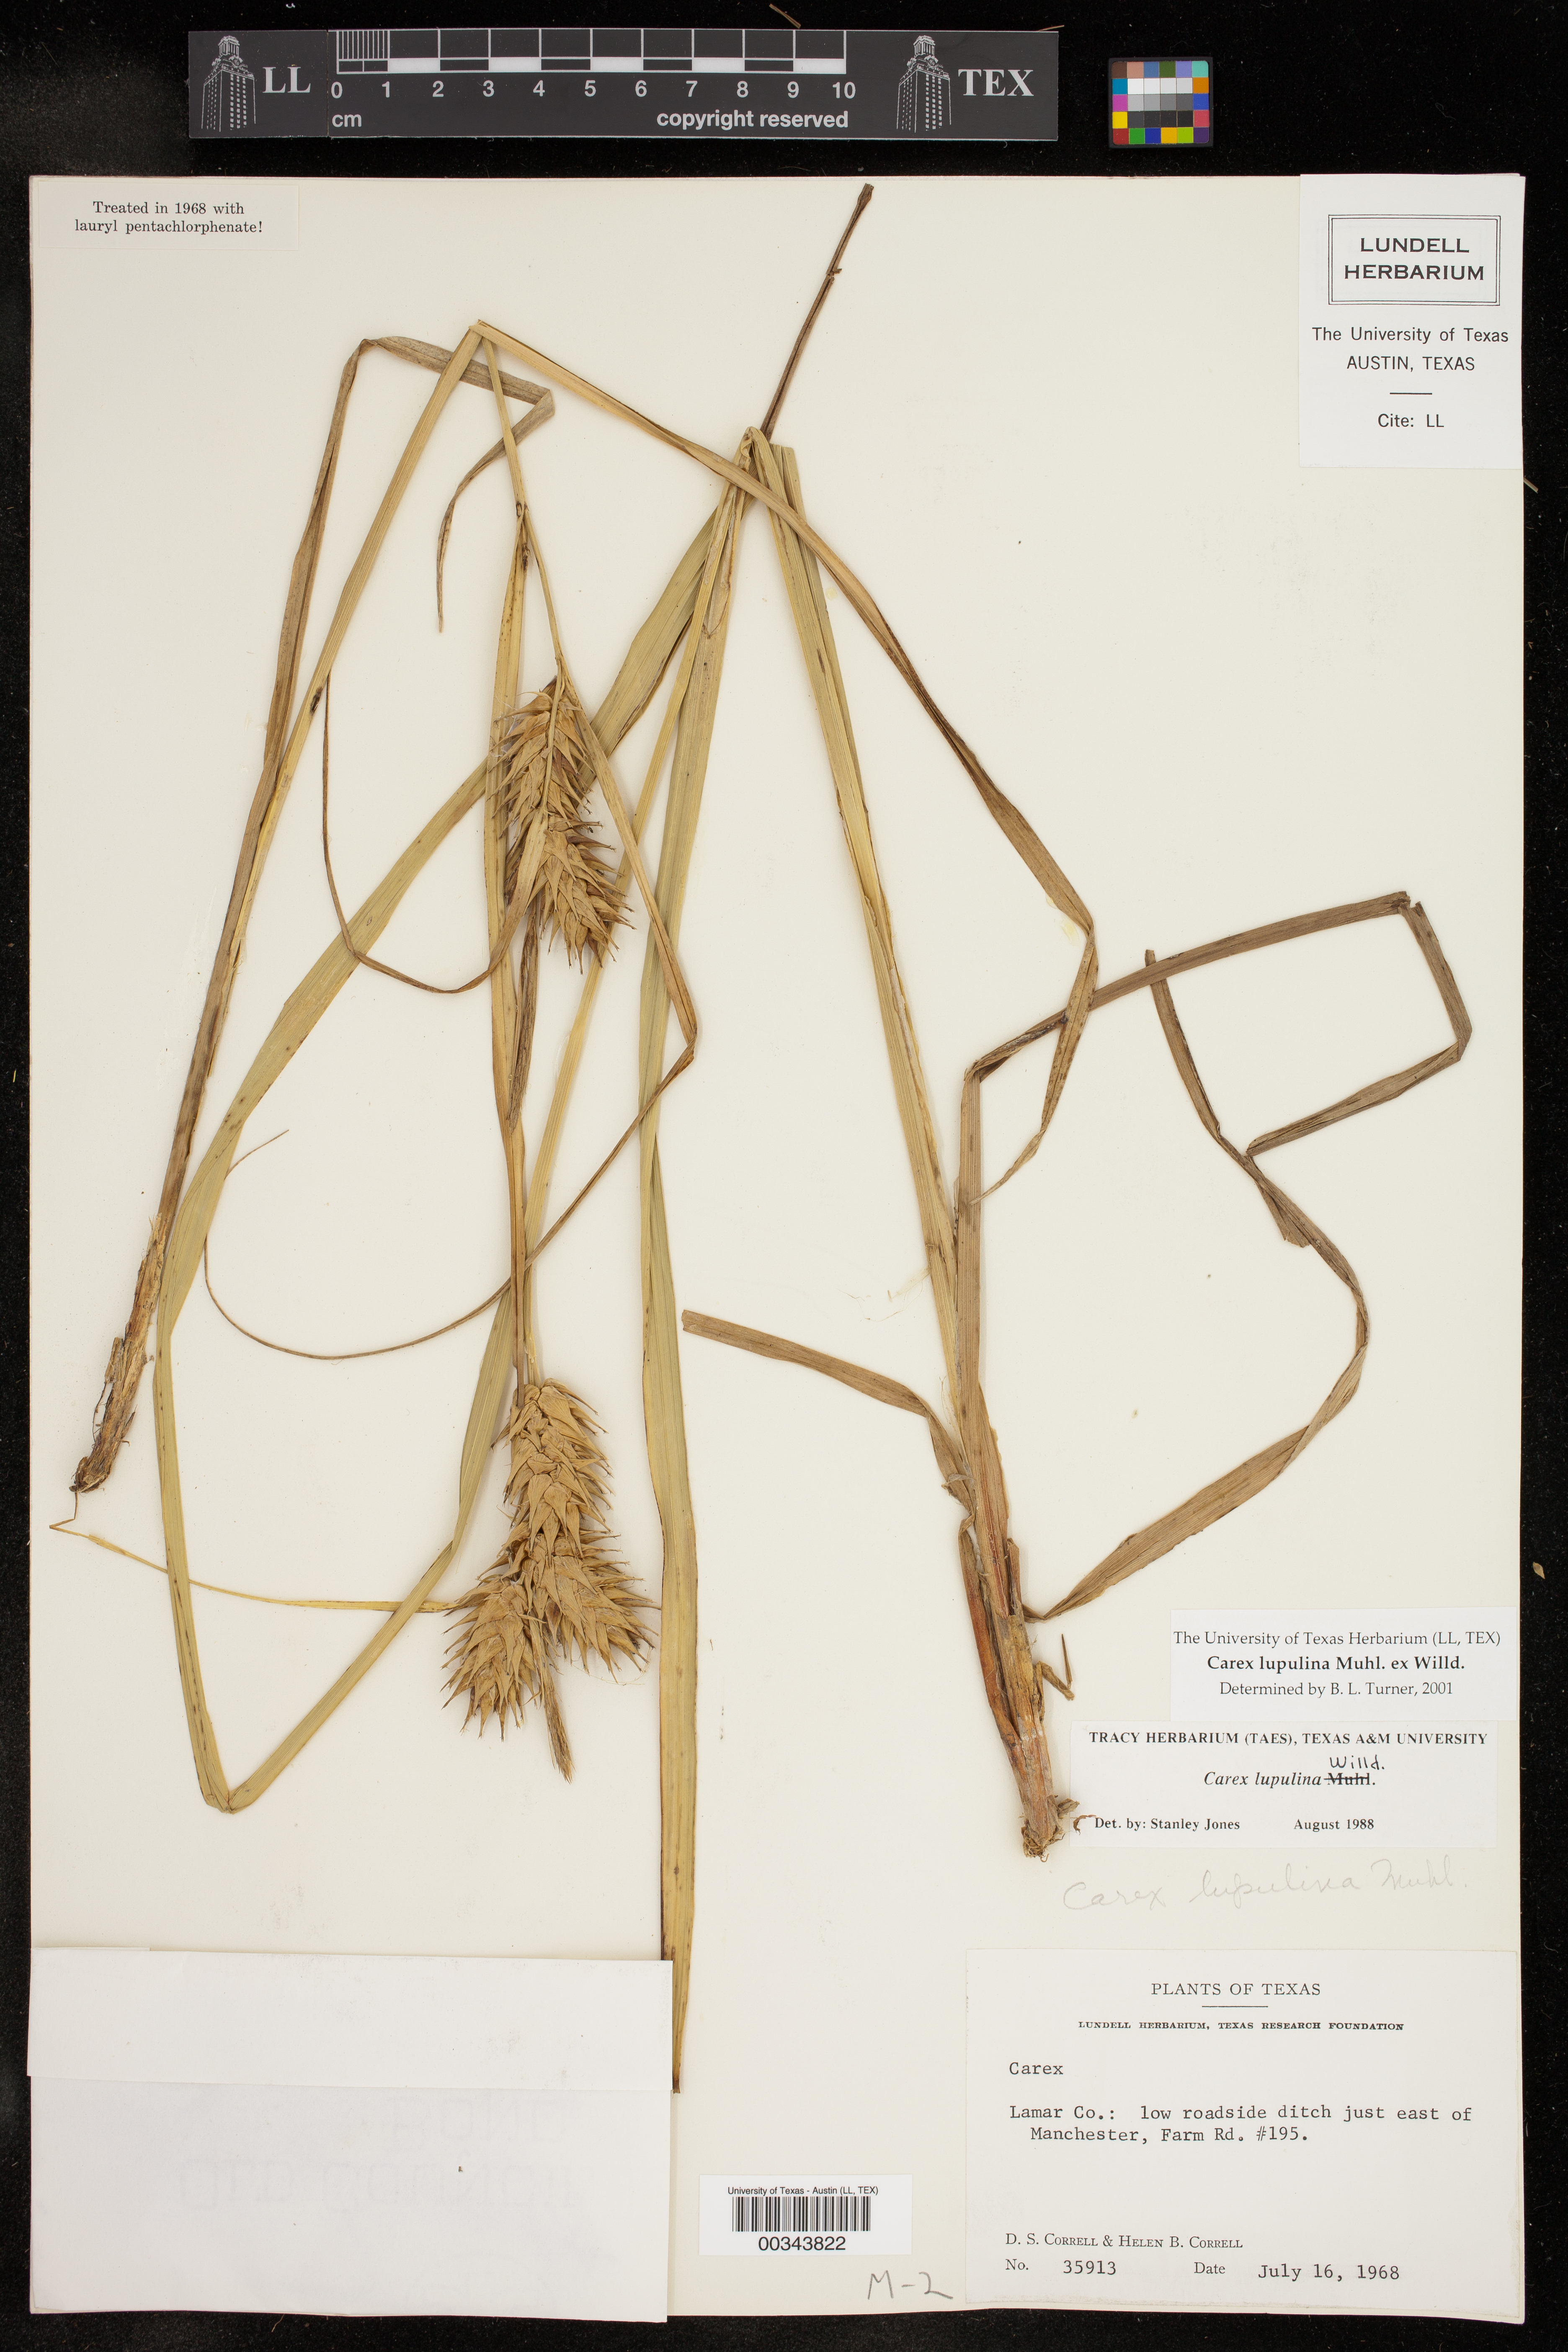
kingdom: Plantae
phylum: Tracheophyta
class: Liliopsida
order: Poales
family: Cyperaceae
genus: Carex
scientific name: Carex lupulina
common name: Hop sedge
